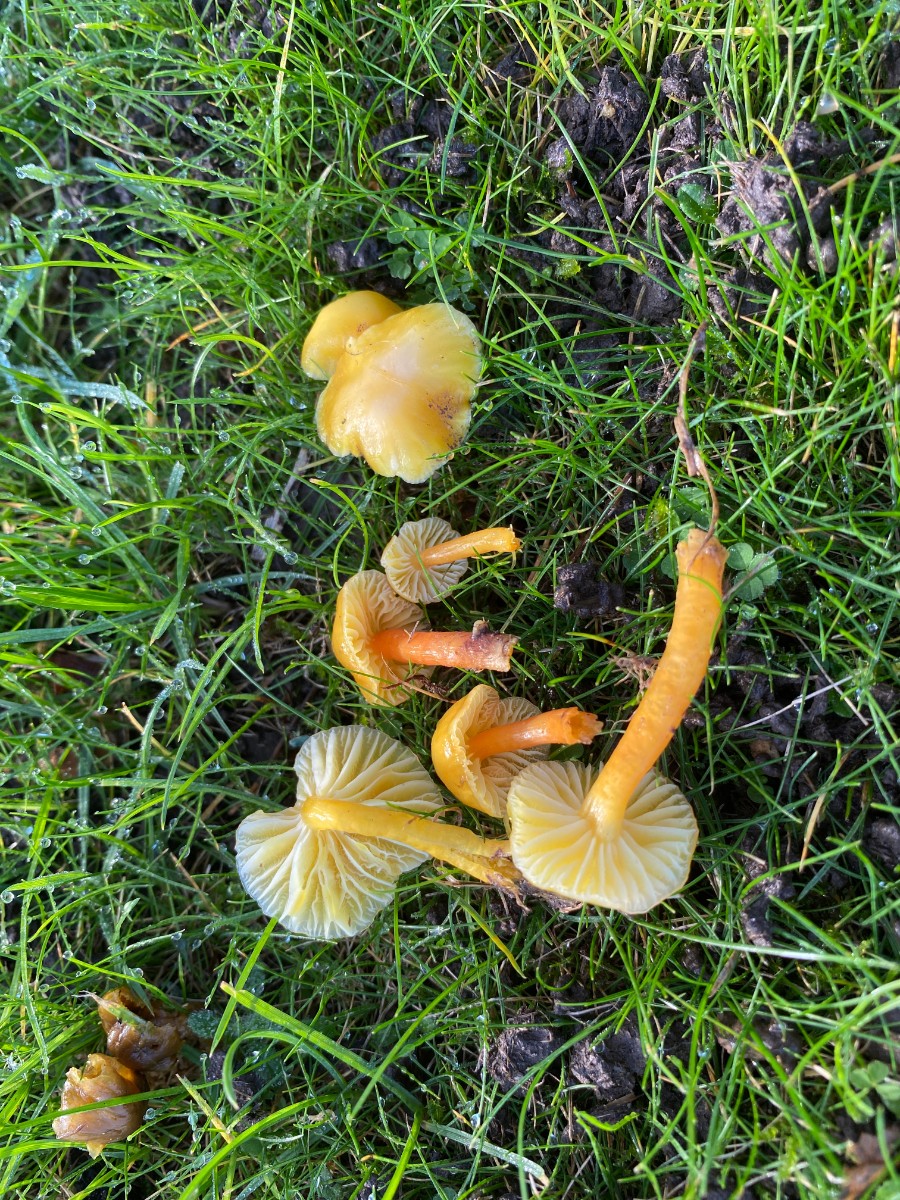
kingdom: Fungi
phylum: Basidiomycota
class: Agaricomycetes
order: Agaricales
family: Hygrophoraceae
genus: Hygrocybe
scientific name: Hygrocybe ceracea
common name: voksgul vokshat
